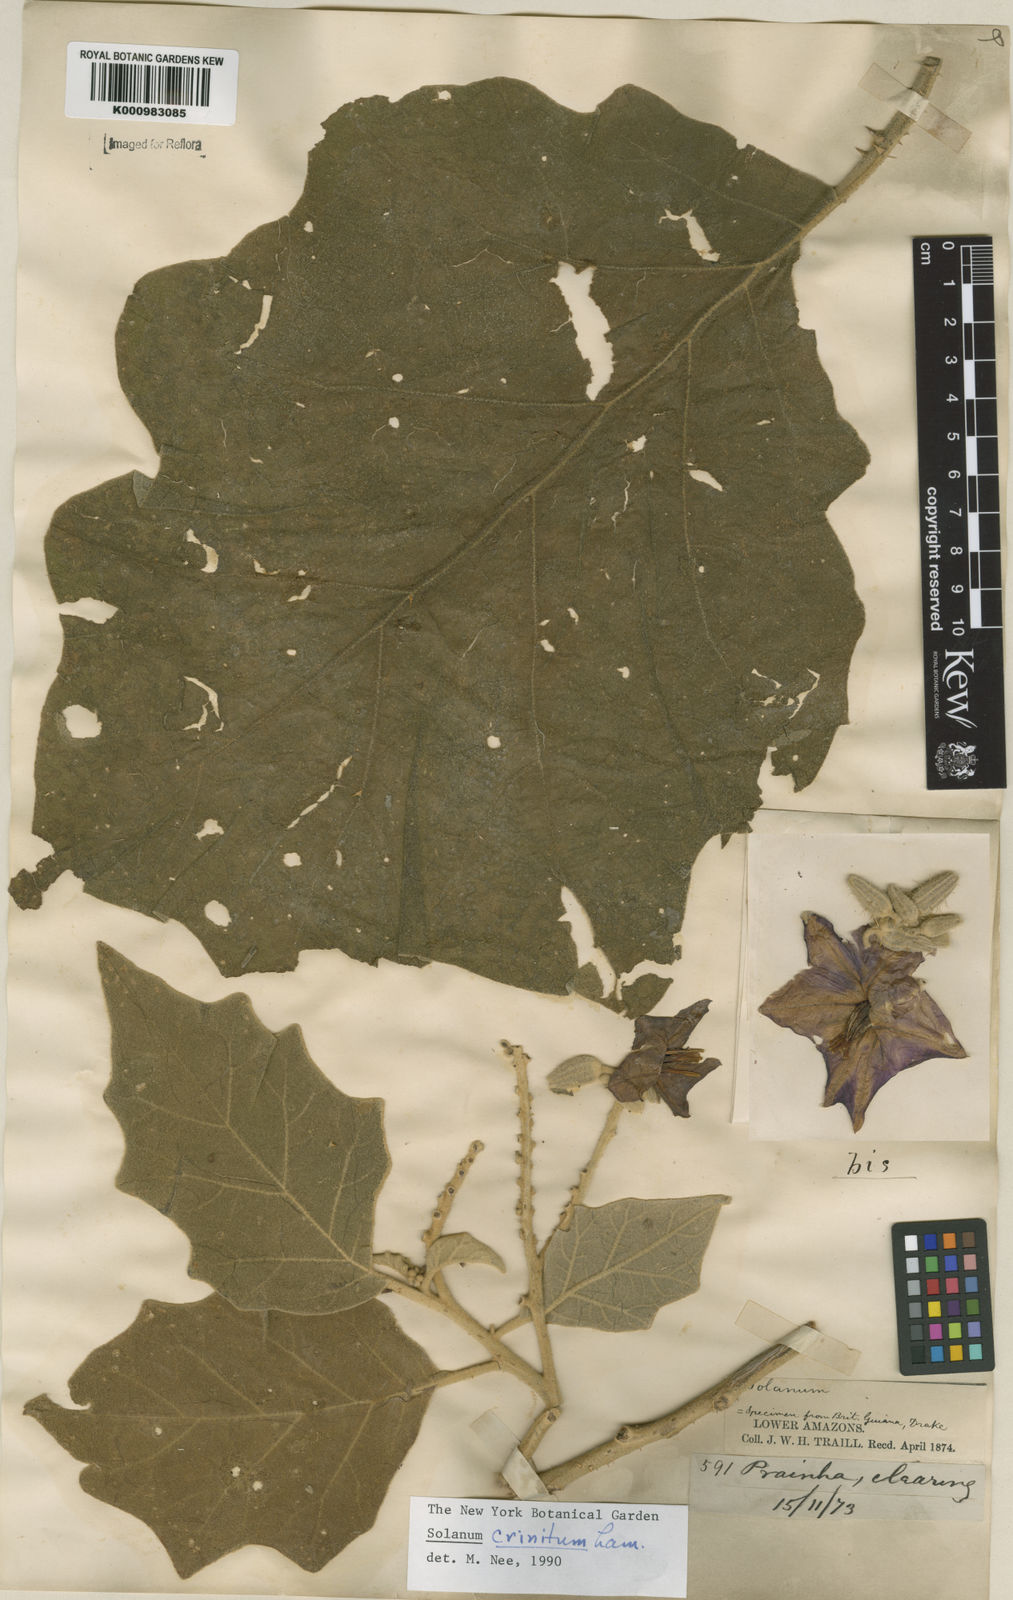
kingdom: Plantae
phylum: Tracheophyta
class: Magnoliopsida
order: Solanales
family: Solanaceae
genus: Solanum
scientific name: Solanum crinitum
